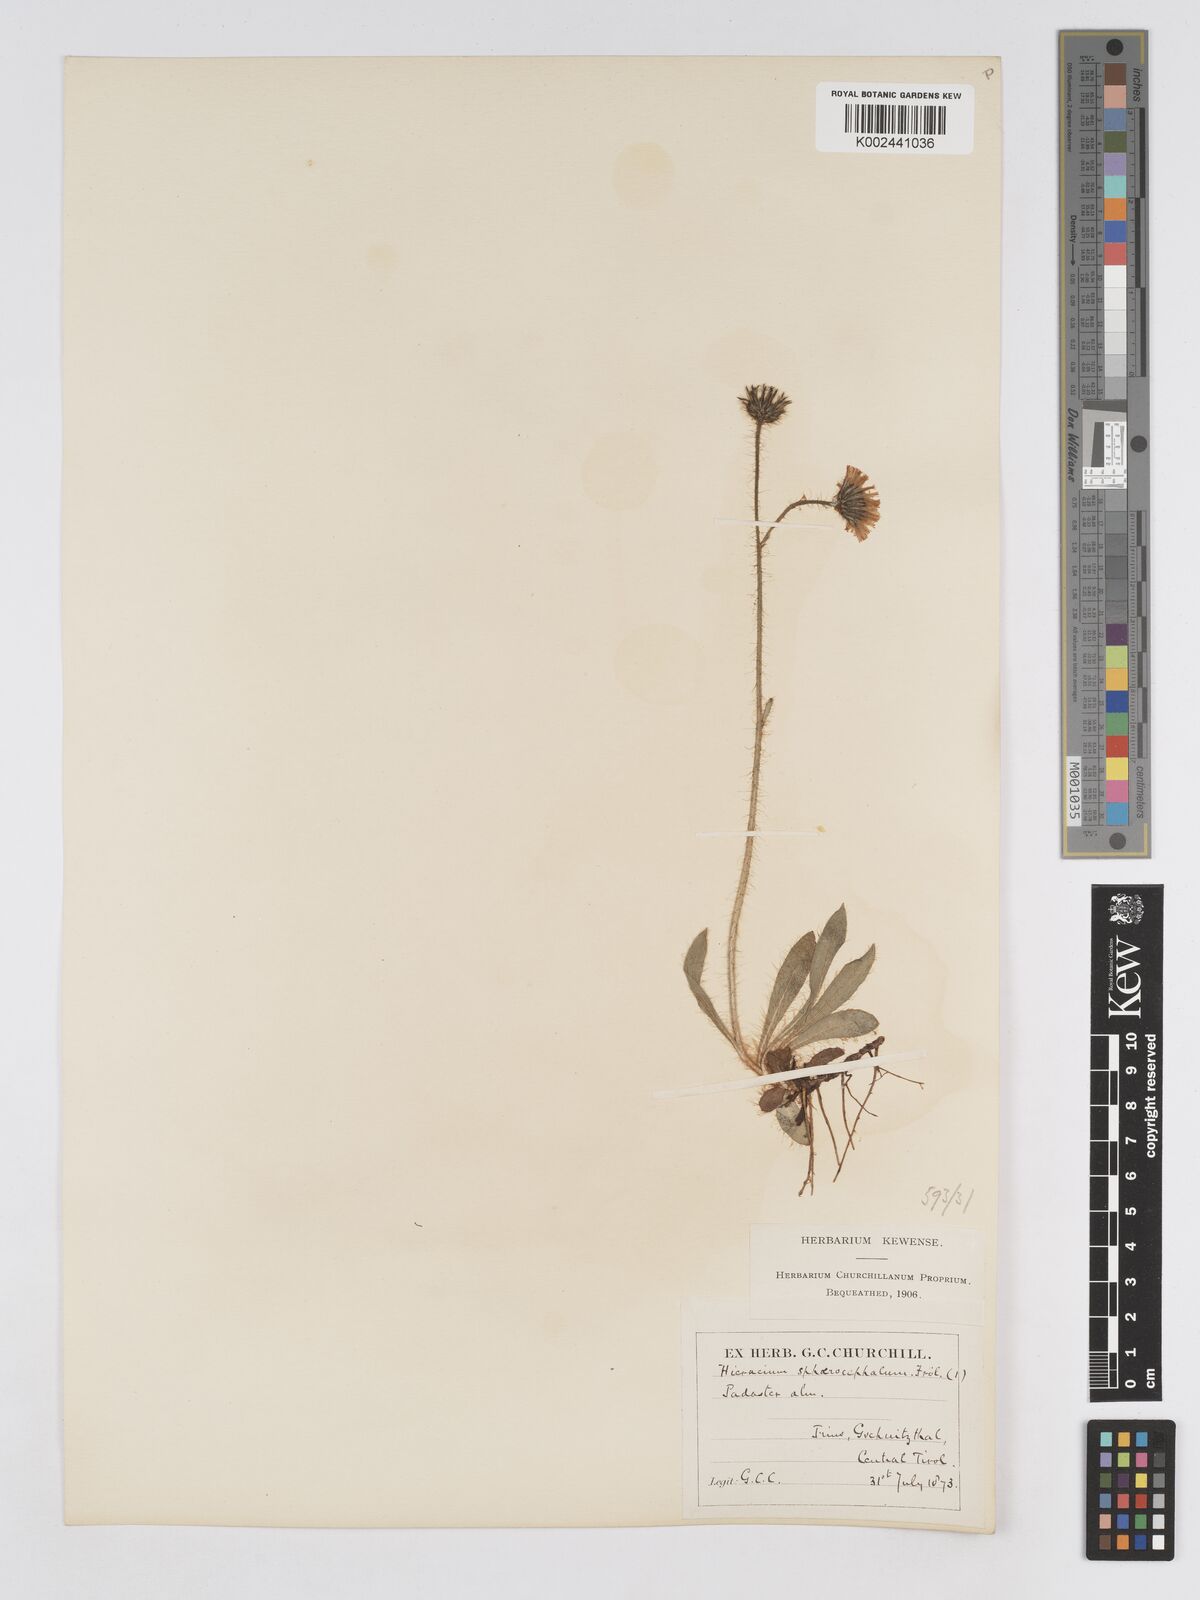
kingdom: Plantae
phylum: Tracheophyta
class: Magnoliopsida
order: Asterales
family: Asteraceae
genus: Pilosella
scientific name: Pilosella sphaerocephala
